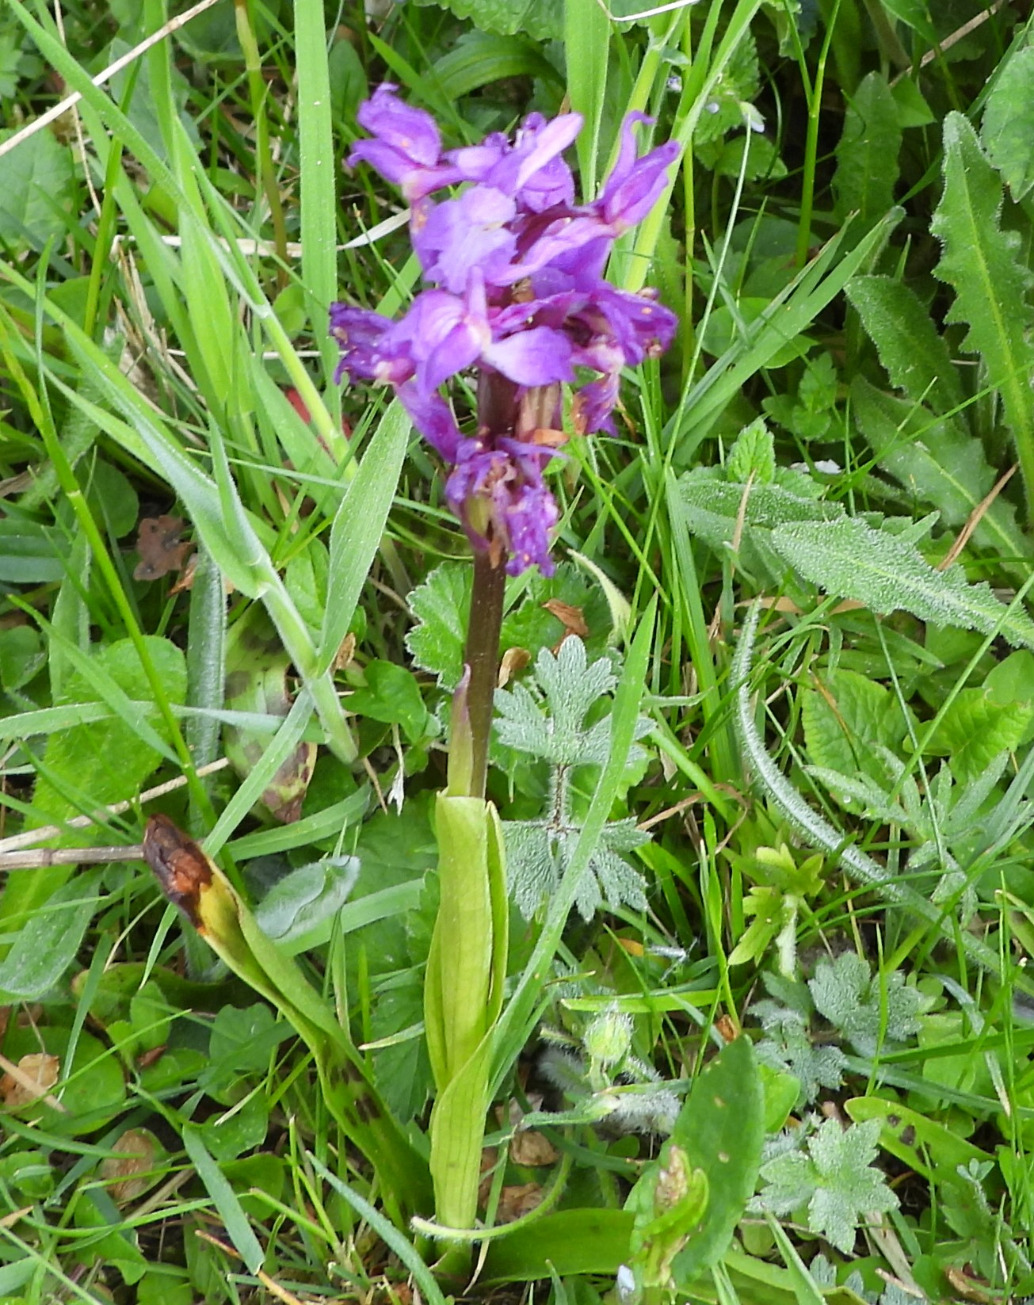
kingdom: Plantae
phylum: Tracheophyta
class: Liliopsida
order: Asparagales
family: Orchidaceae
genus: Orchis
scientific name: Orchis mascula
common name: Tyndakset gøgeurt
